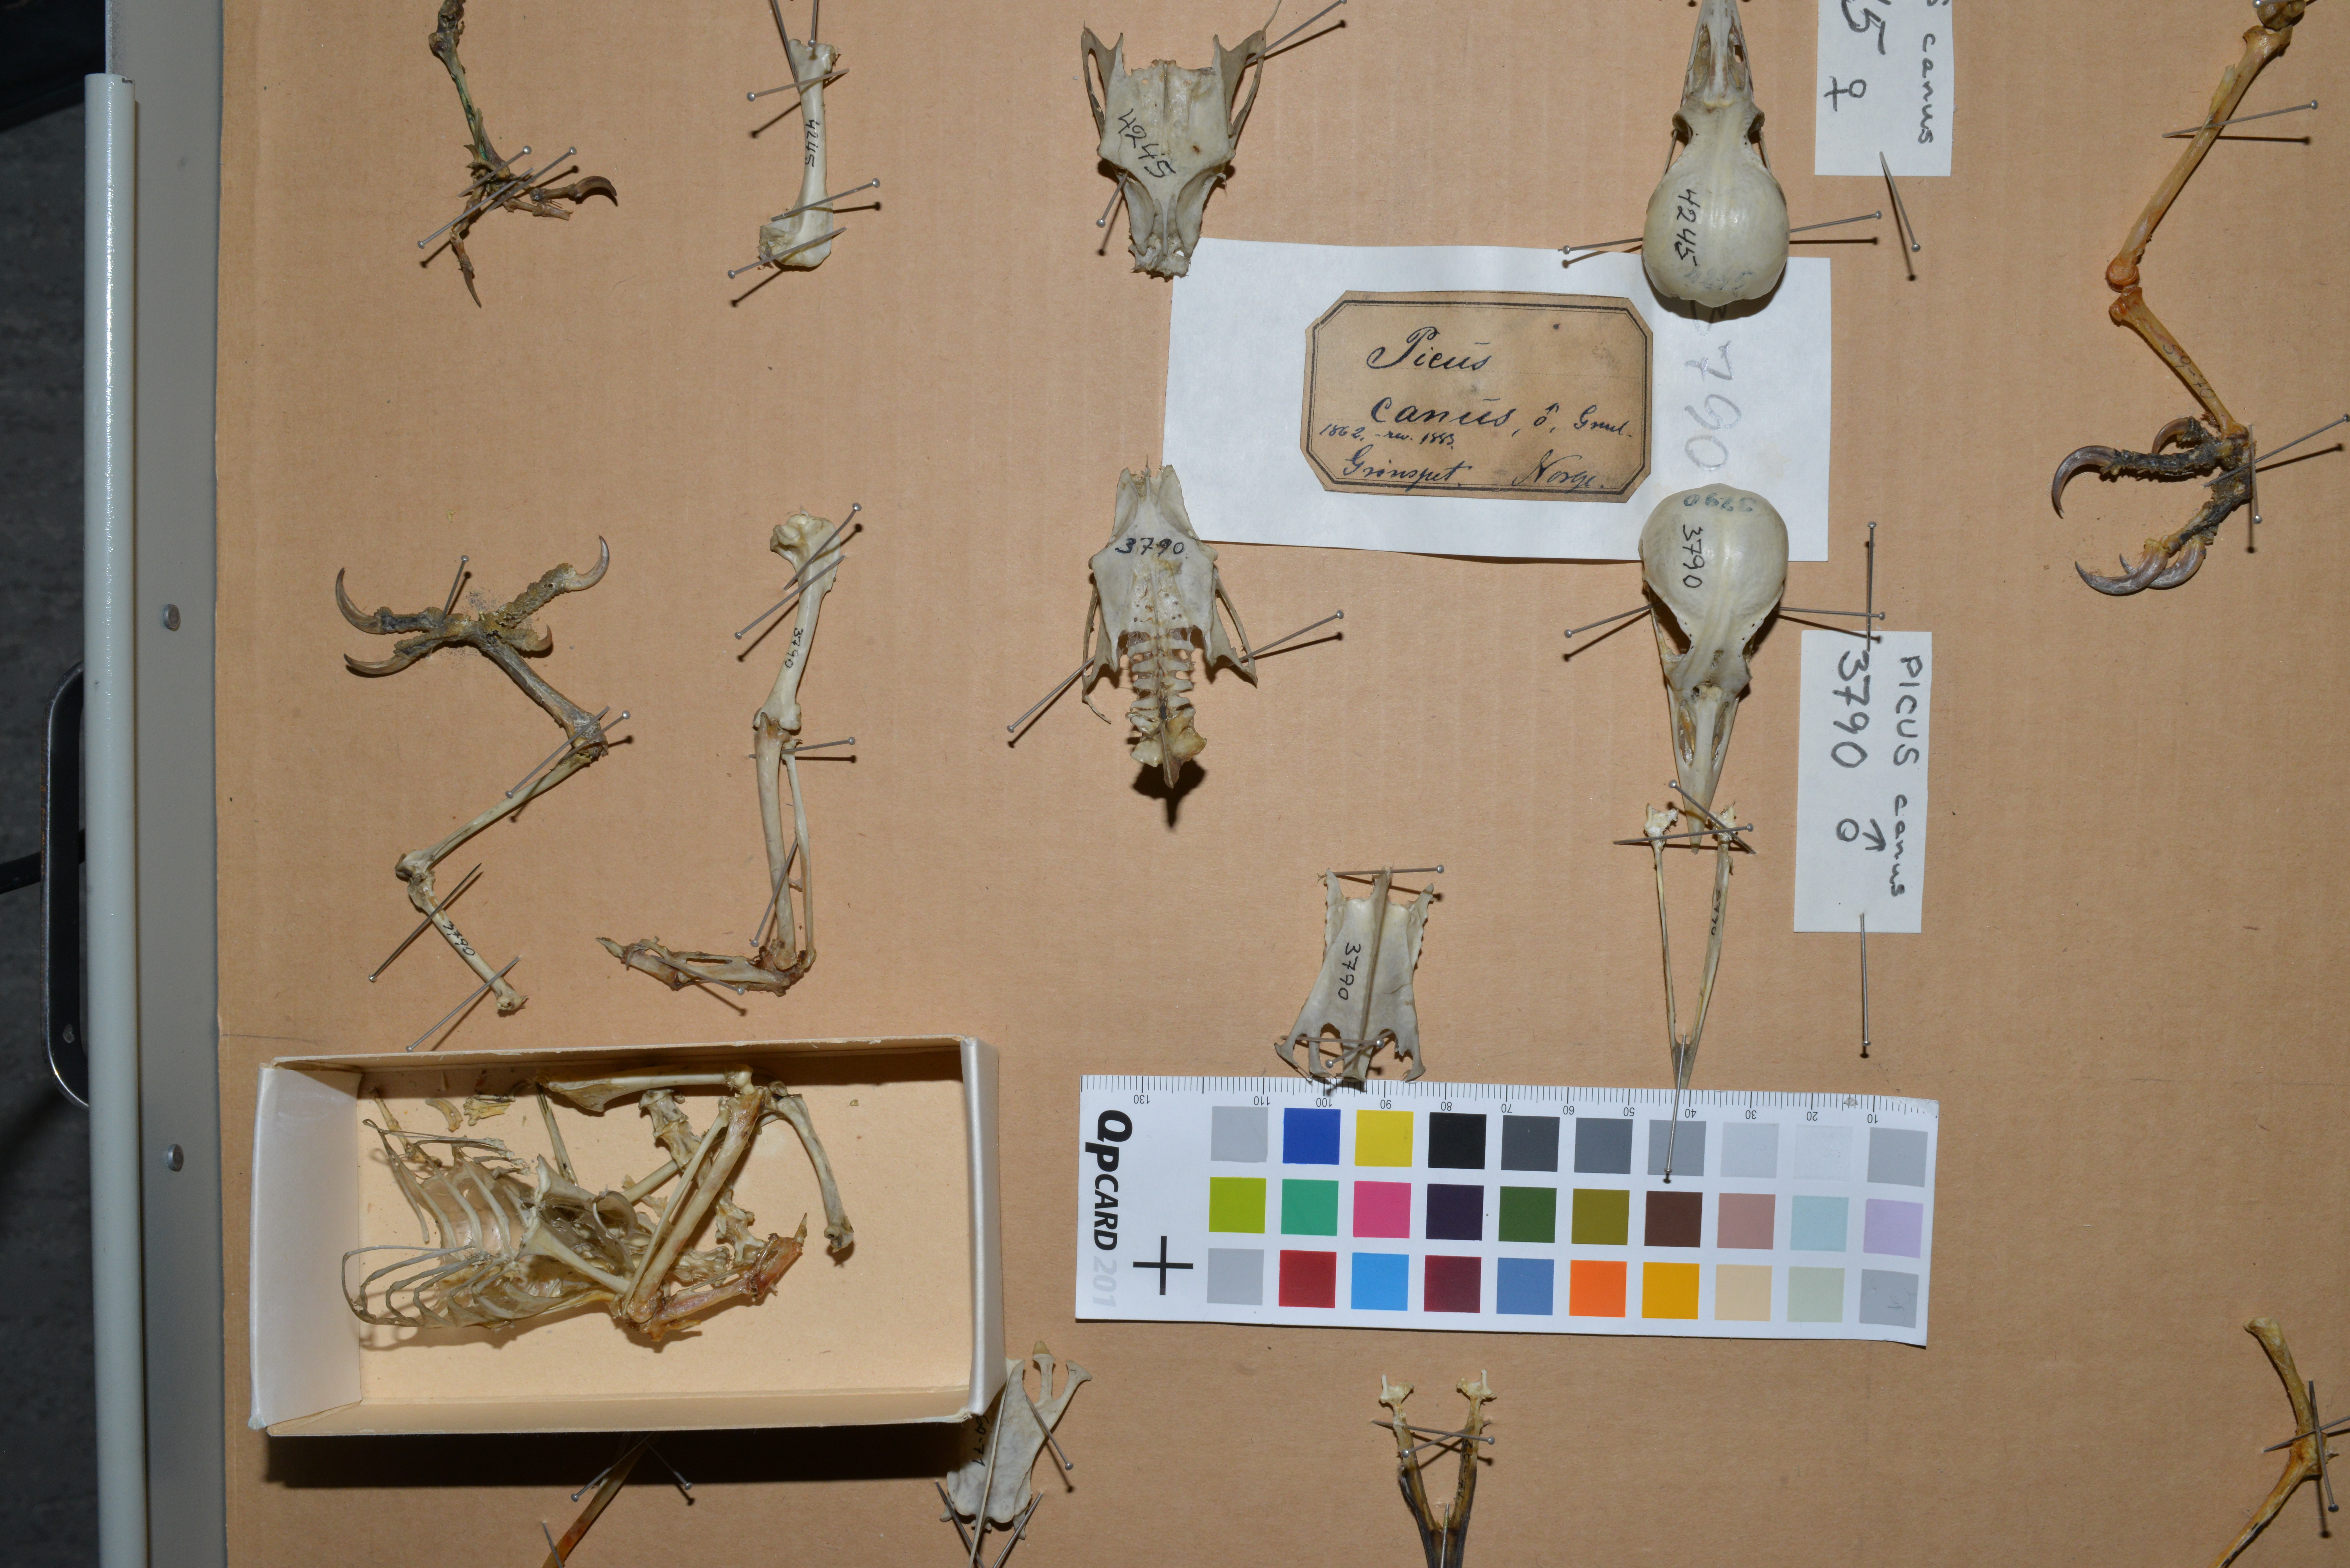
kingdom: Animalia
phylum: Chordata
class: Aves
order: Piciformes
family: Picidae
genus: Picus
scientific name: Picus canus
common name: Grey-headed woodpecker
